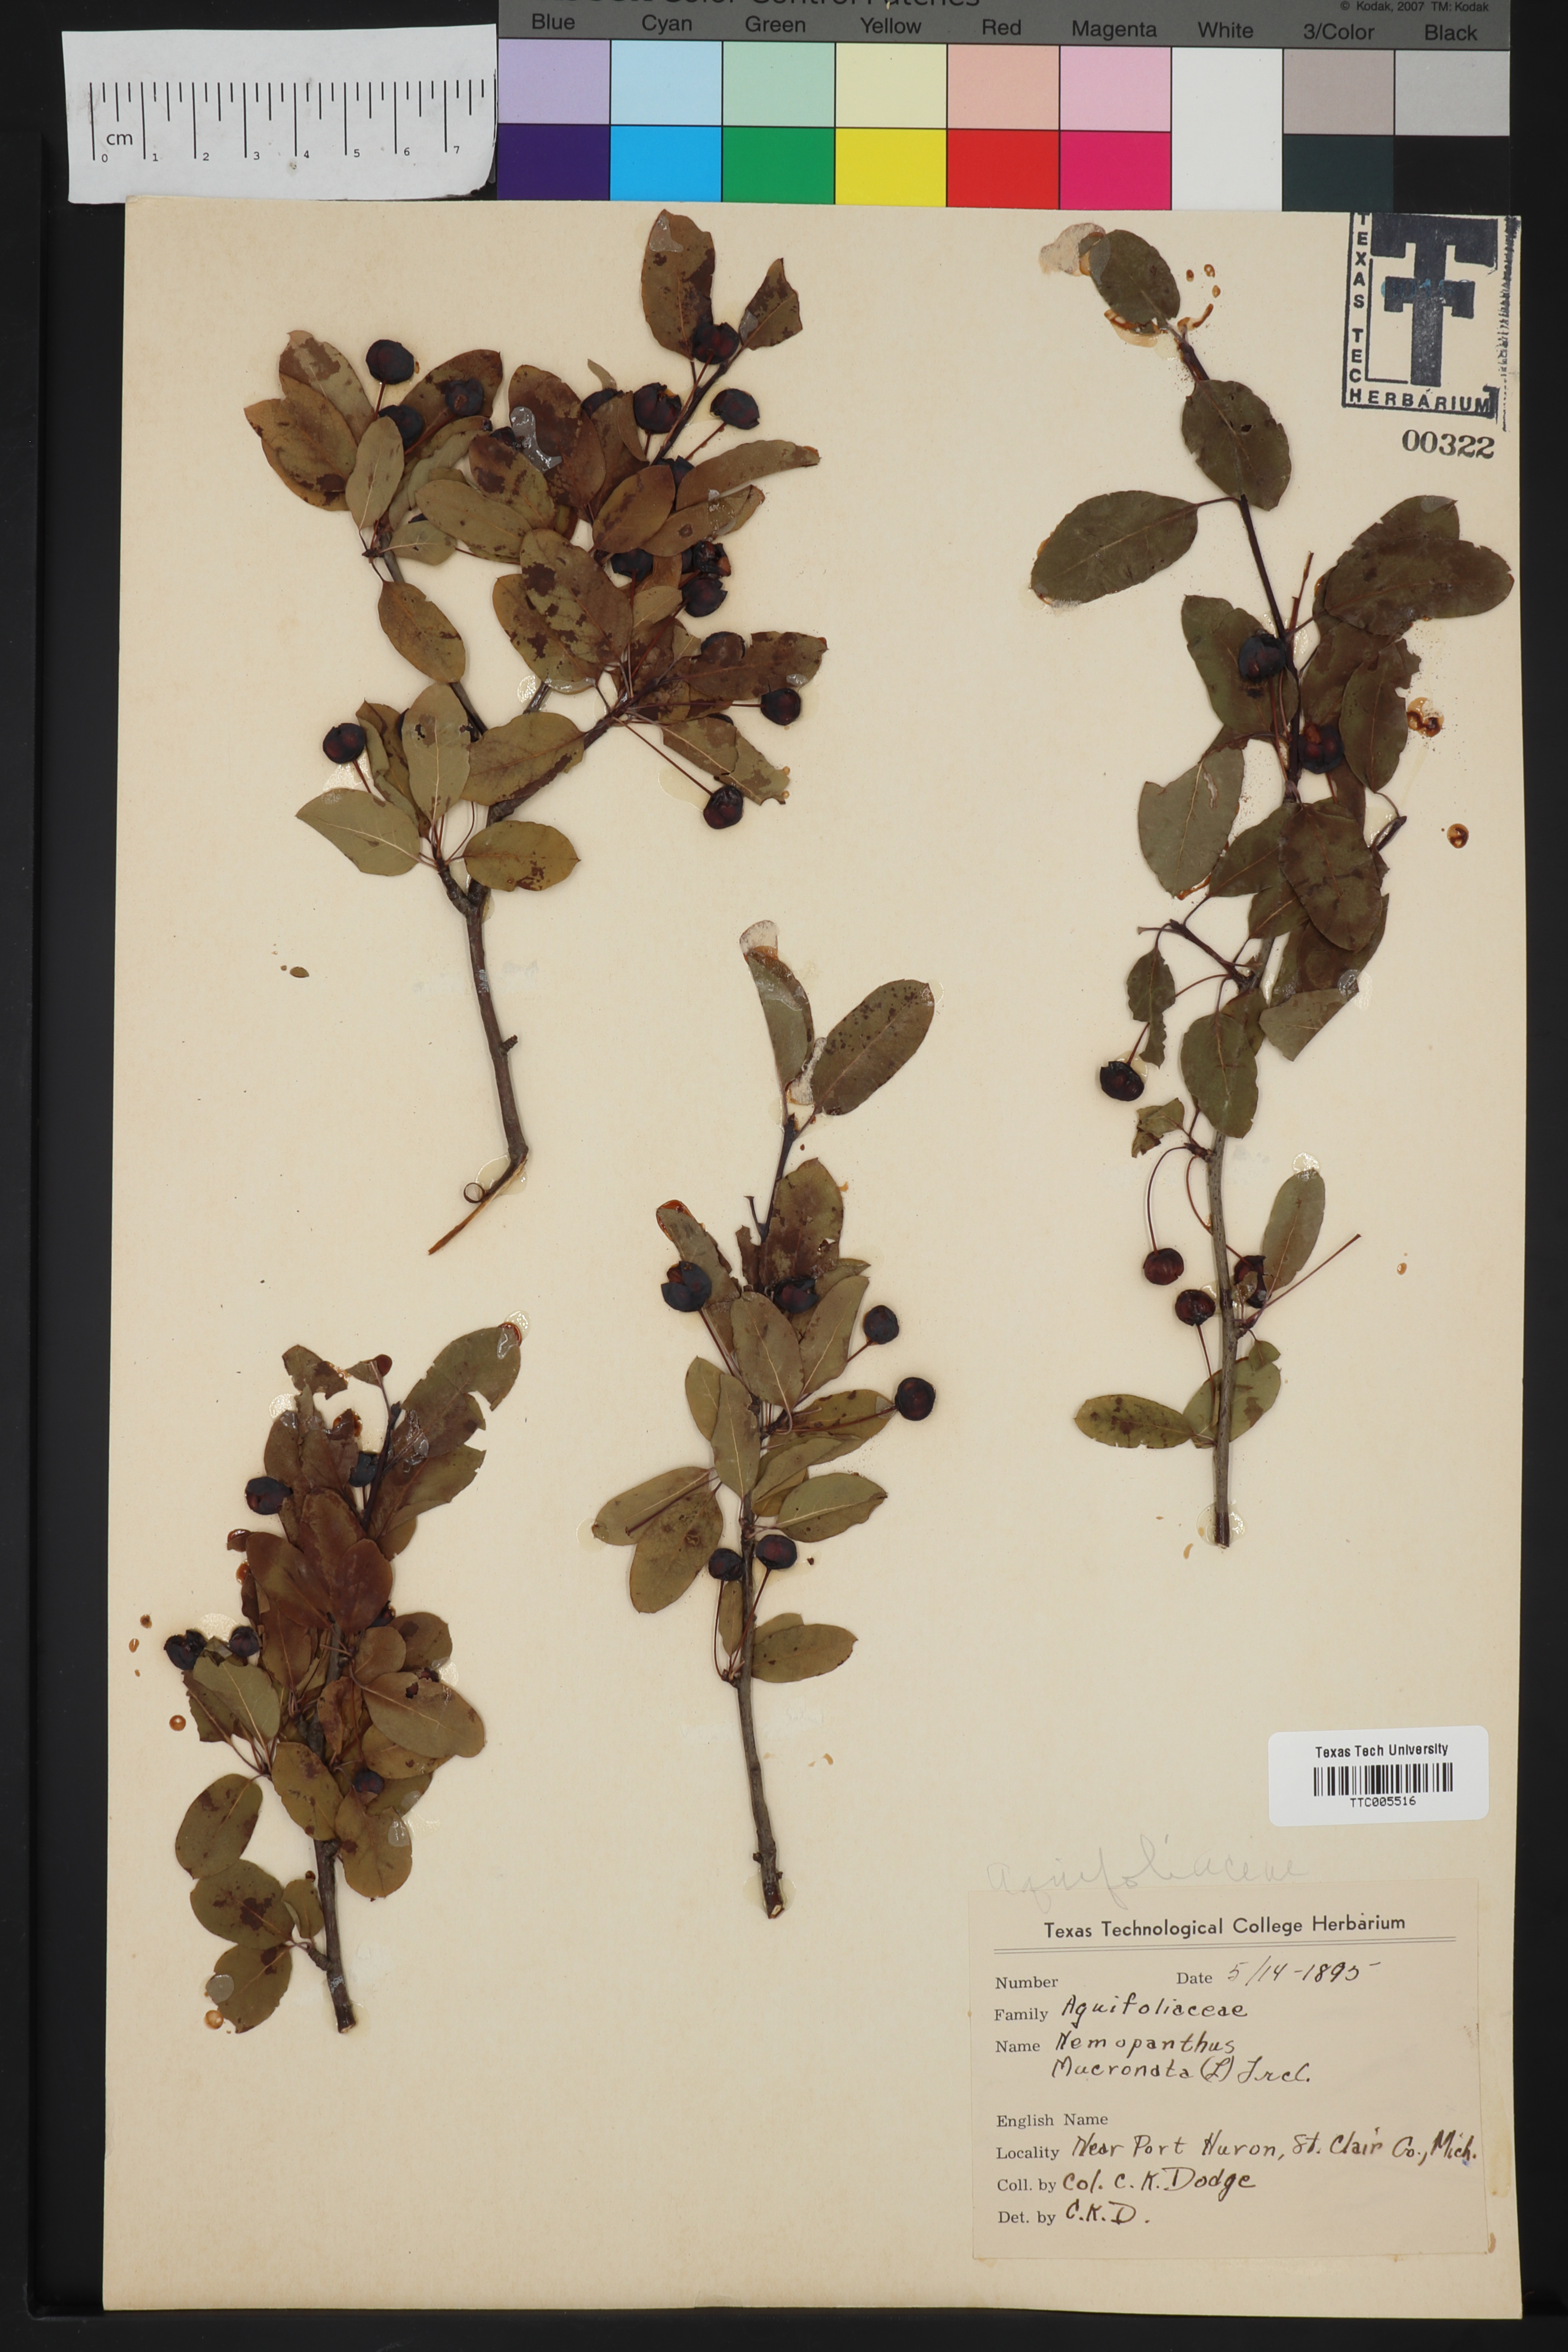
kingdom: Plantae
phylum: Tracheophyta
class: Magnoliopsida
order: Aquifoliales
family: Aquifoliaceae
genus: Ilex
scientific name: Ilex mucronata
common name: Catberry
